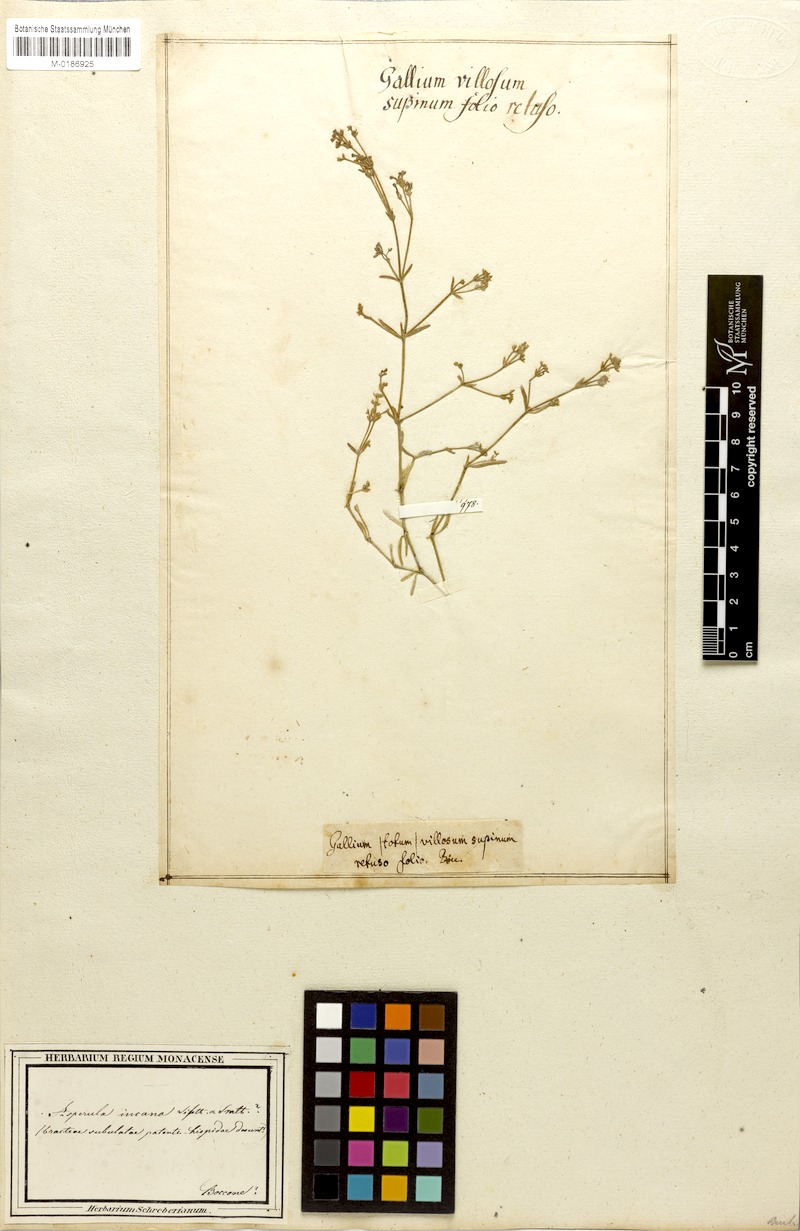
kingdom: Plantae
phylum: Tracheophyta
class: Magnoliopsida
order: Gentianales
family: Rubiaceae
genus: Hexaphylla
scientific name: Hexaphylla pubescens
